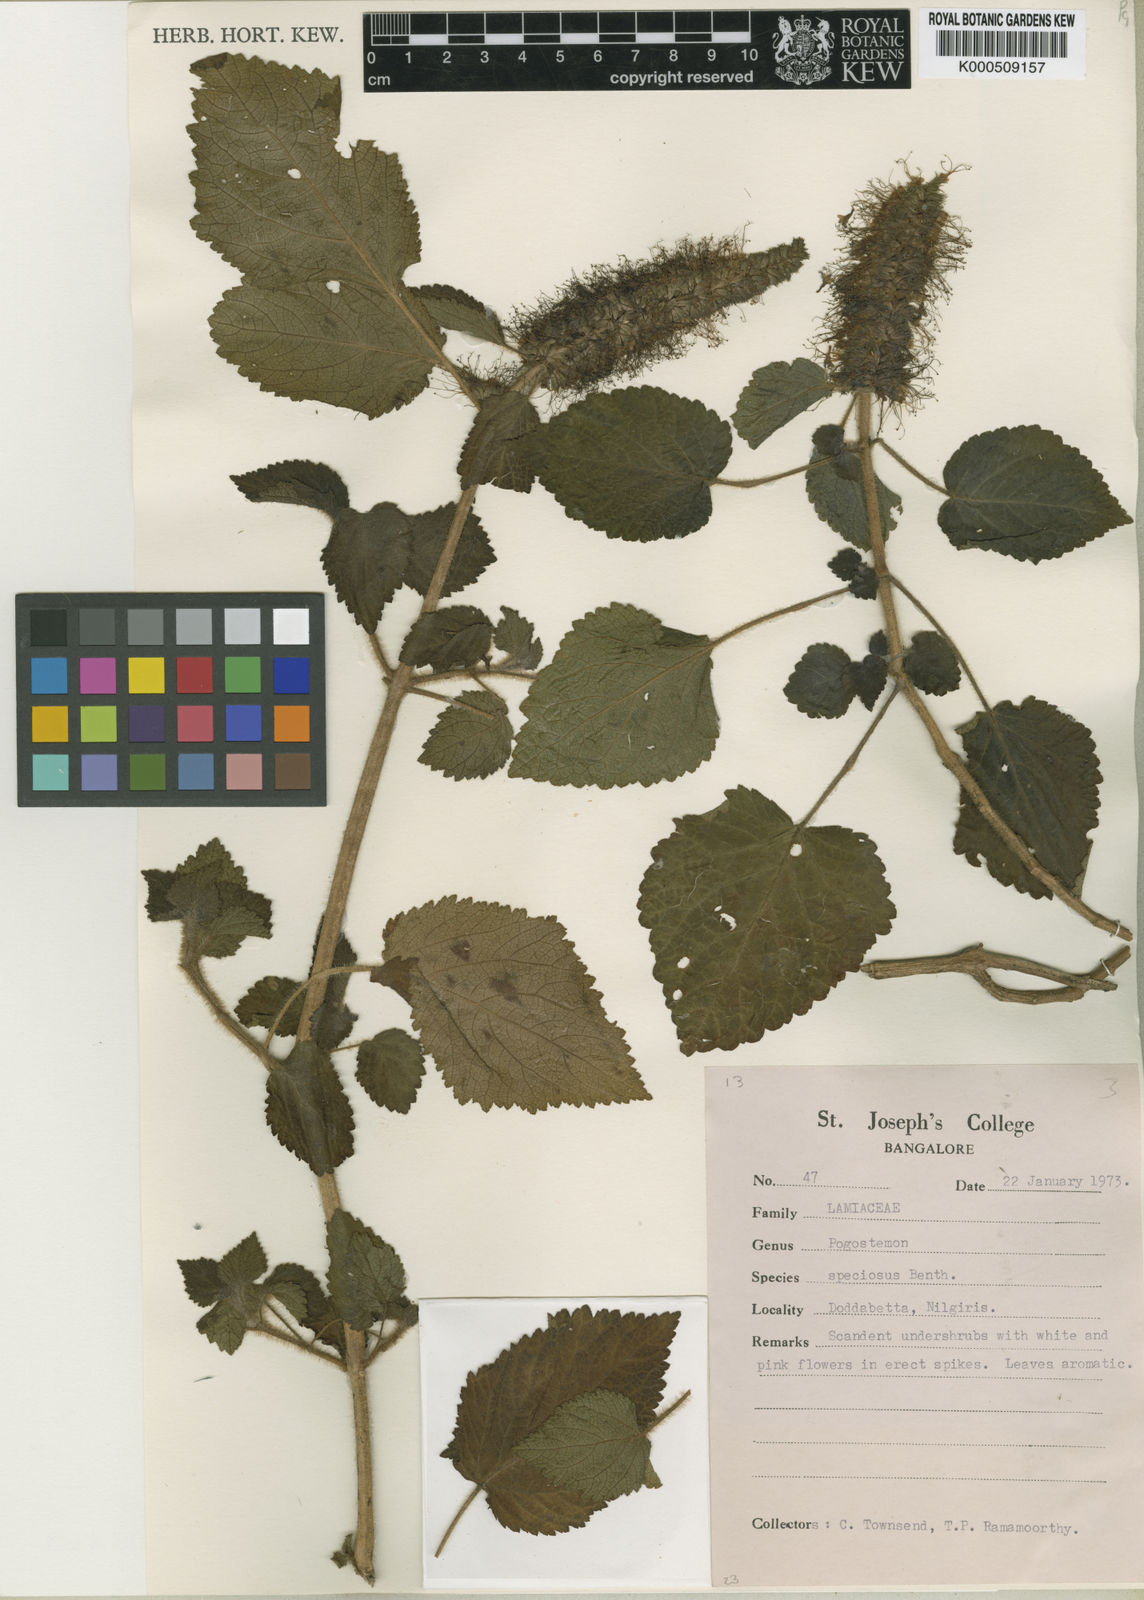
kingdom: Plantae
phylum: Tracheophyta
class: Magnoliopsida
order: Lamiales
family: Lamiaceae
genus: Pogostemon
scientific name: Pogostemon speciosus
